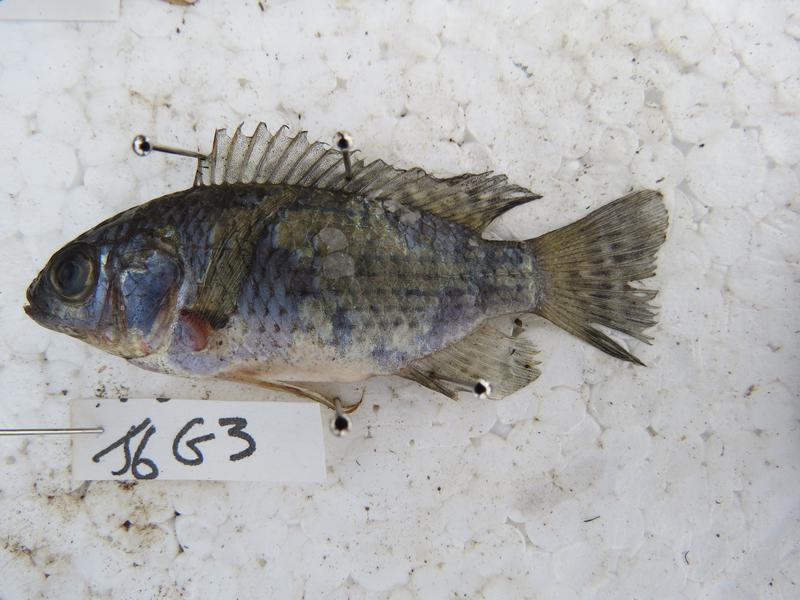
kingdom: Animalia
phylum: Chordata
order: Perciformes
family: Cichlidae
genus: Oreochromis
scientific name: Oreochromis leucostictus
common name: Blue spotted tilapia
